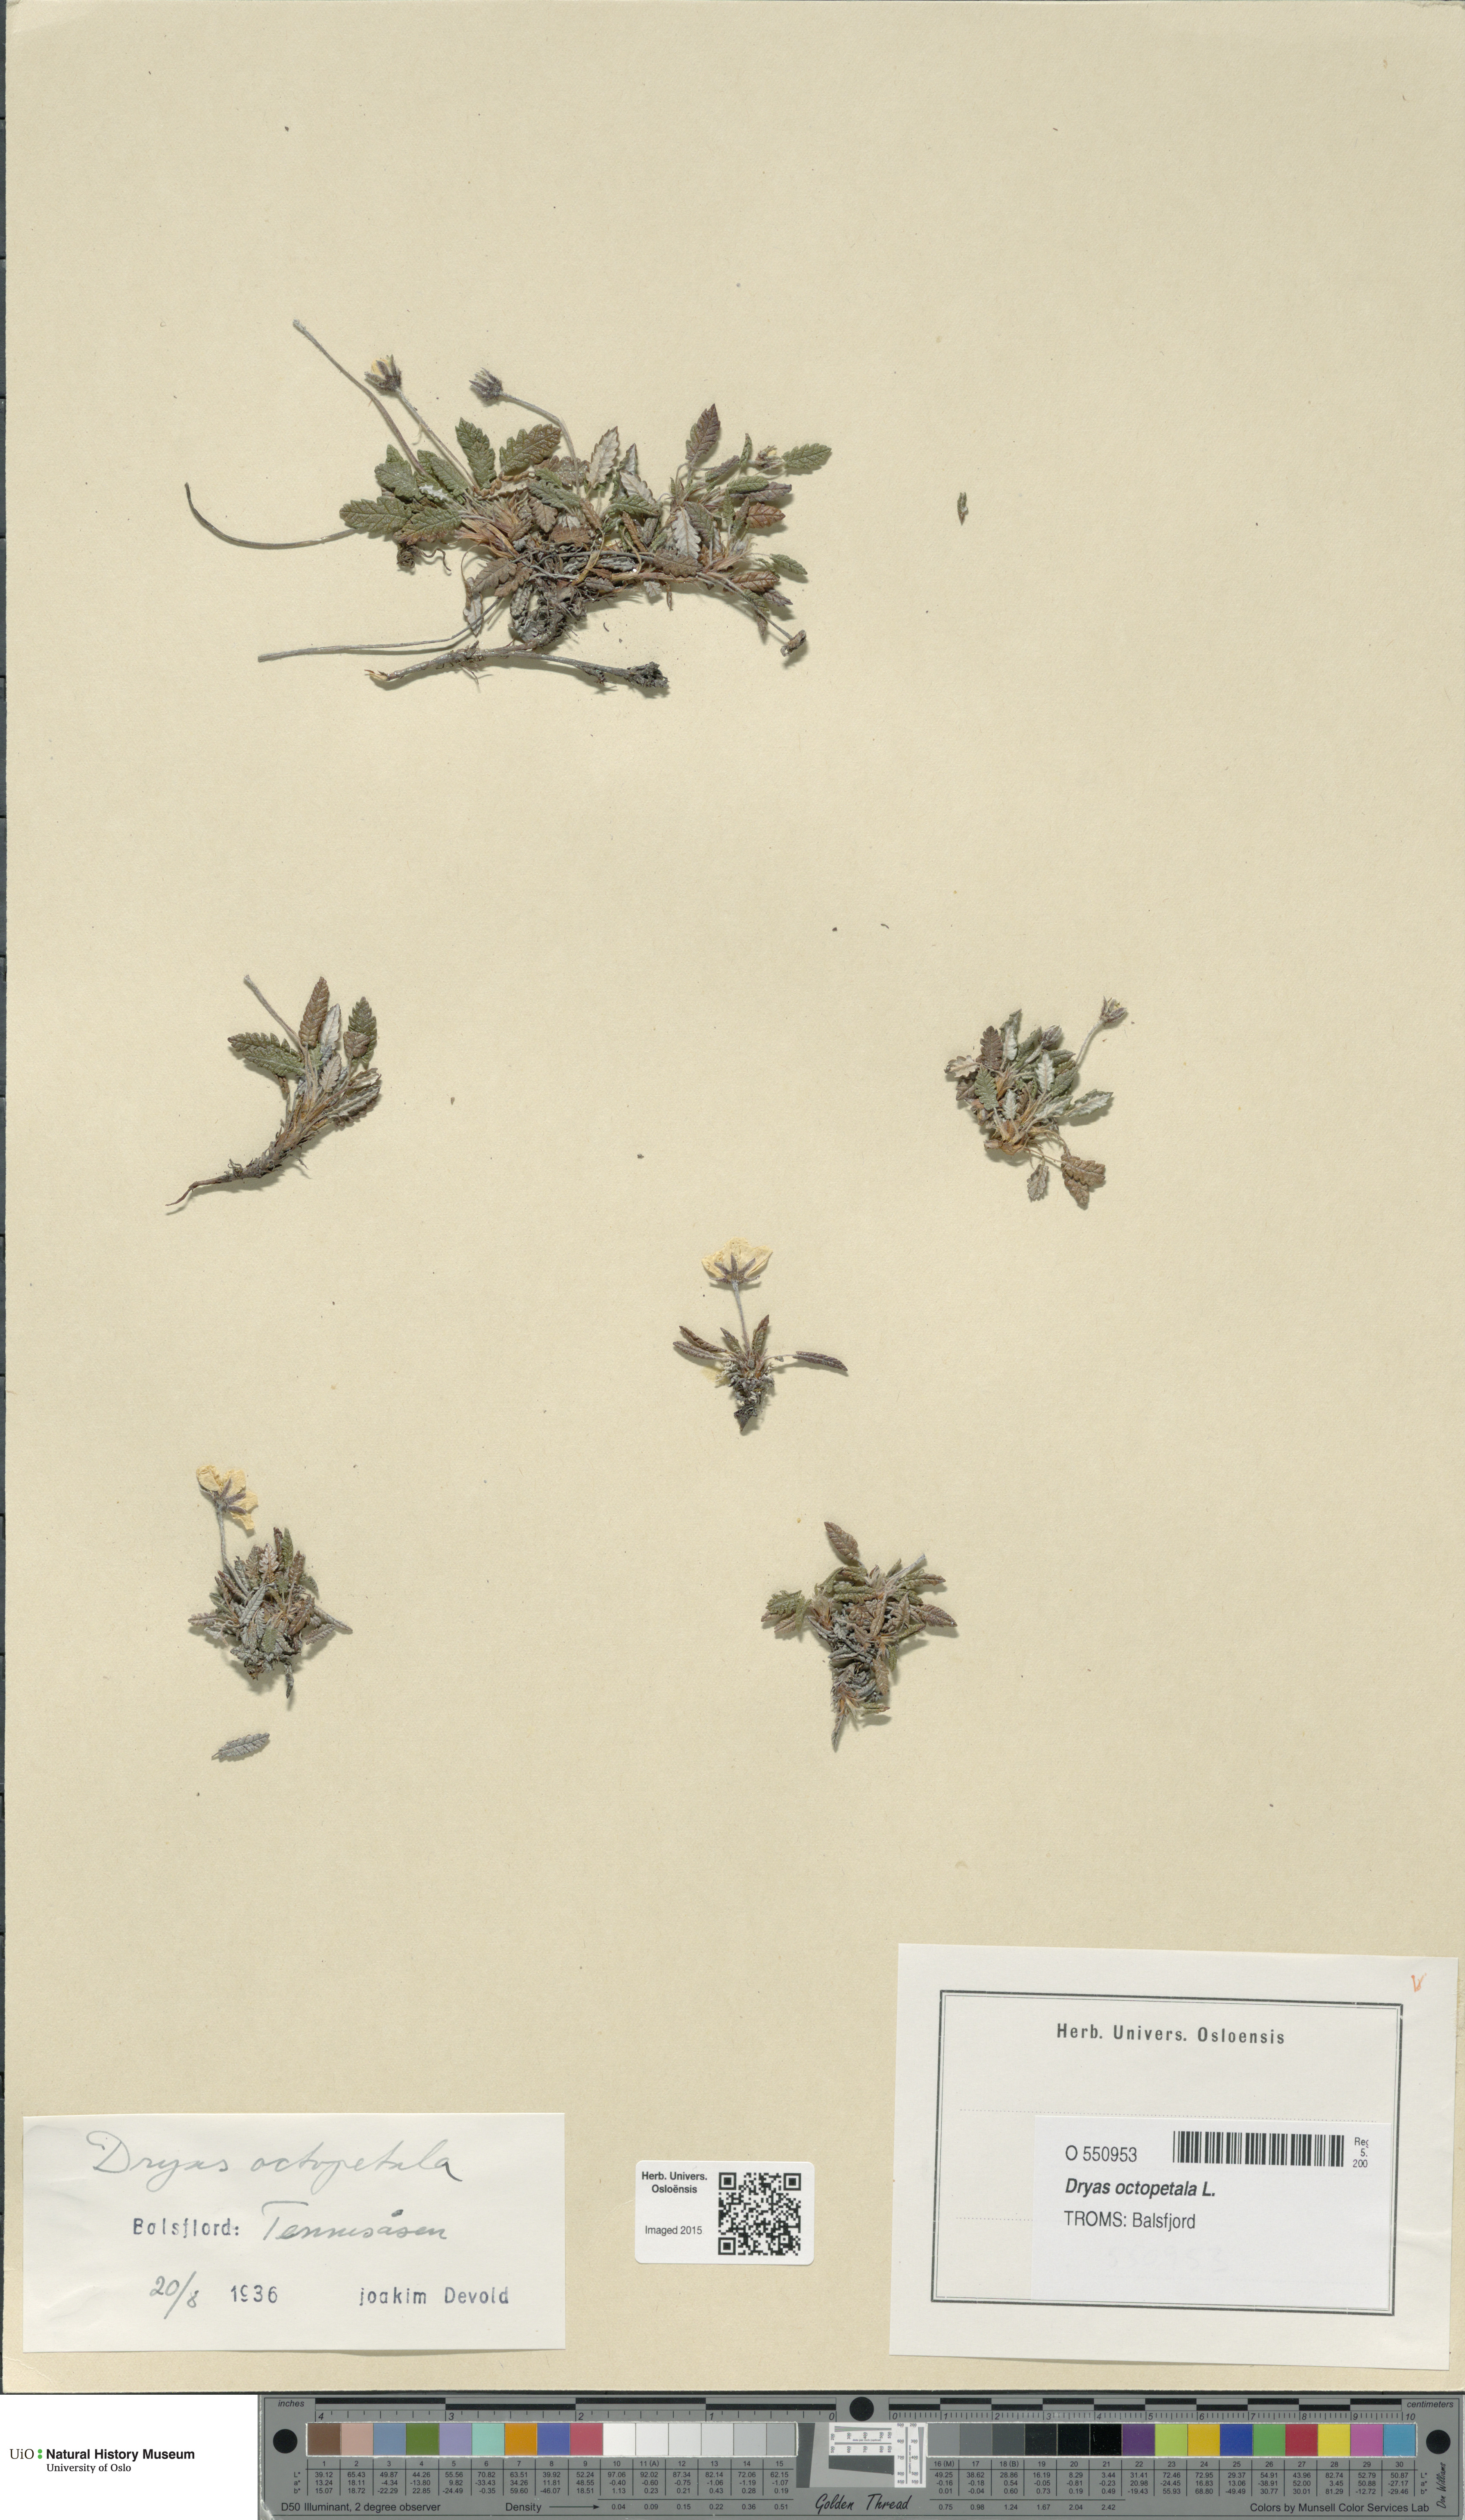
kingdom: Plantae
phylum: Tracheophyta
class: Magnoliopsida
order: Rosales
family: Rosaceae
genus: Dryas
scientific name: Dryas octopetala
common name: Eight-petal mountain-avens
